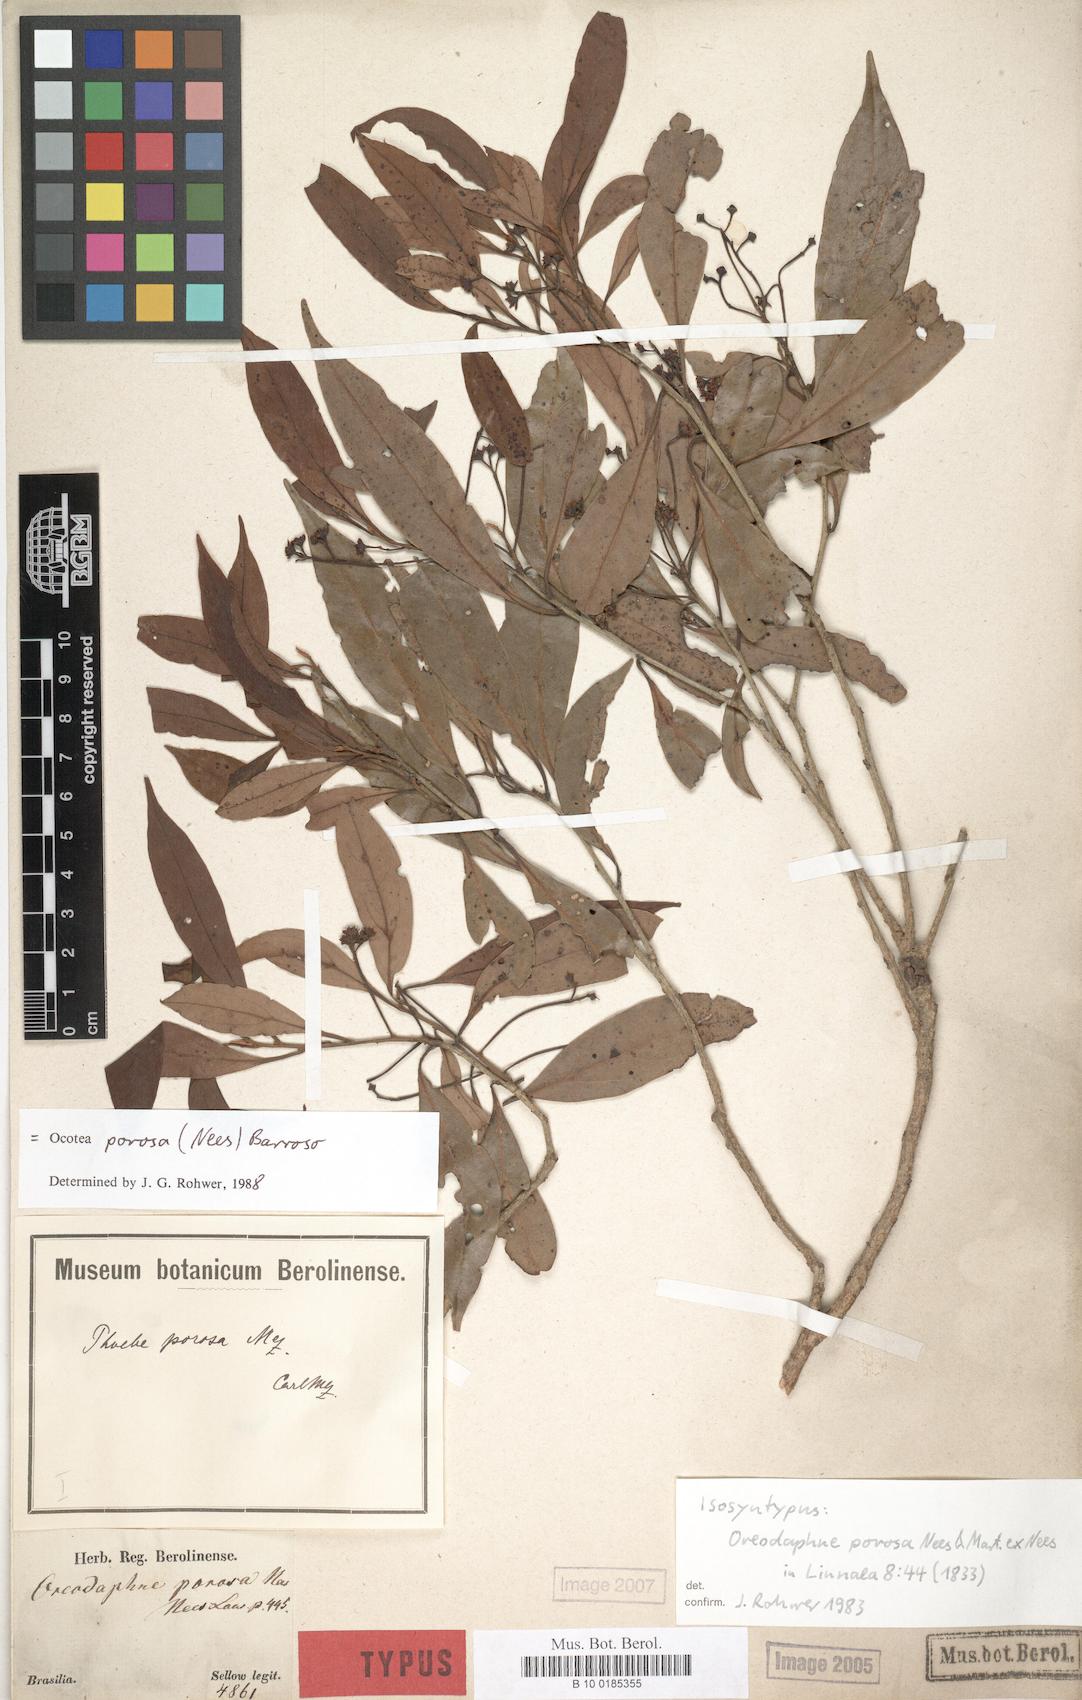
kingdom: Plantae
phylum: Tracheophyta
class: Magnoliopsida
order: Laurales
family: Lauraceae
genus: Ocotea
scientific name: Ocotea porosa
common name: Brazilian-walnut
